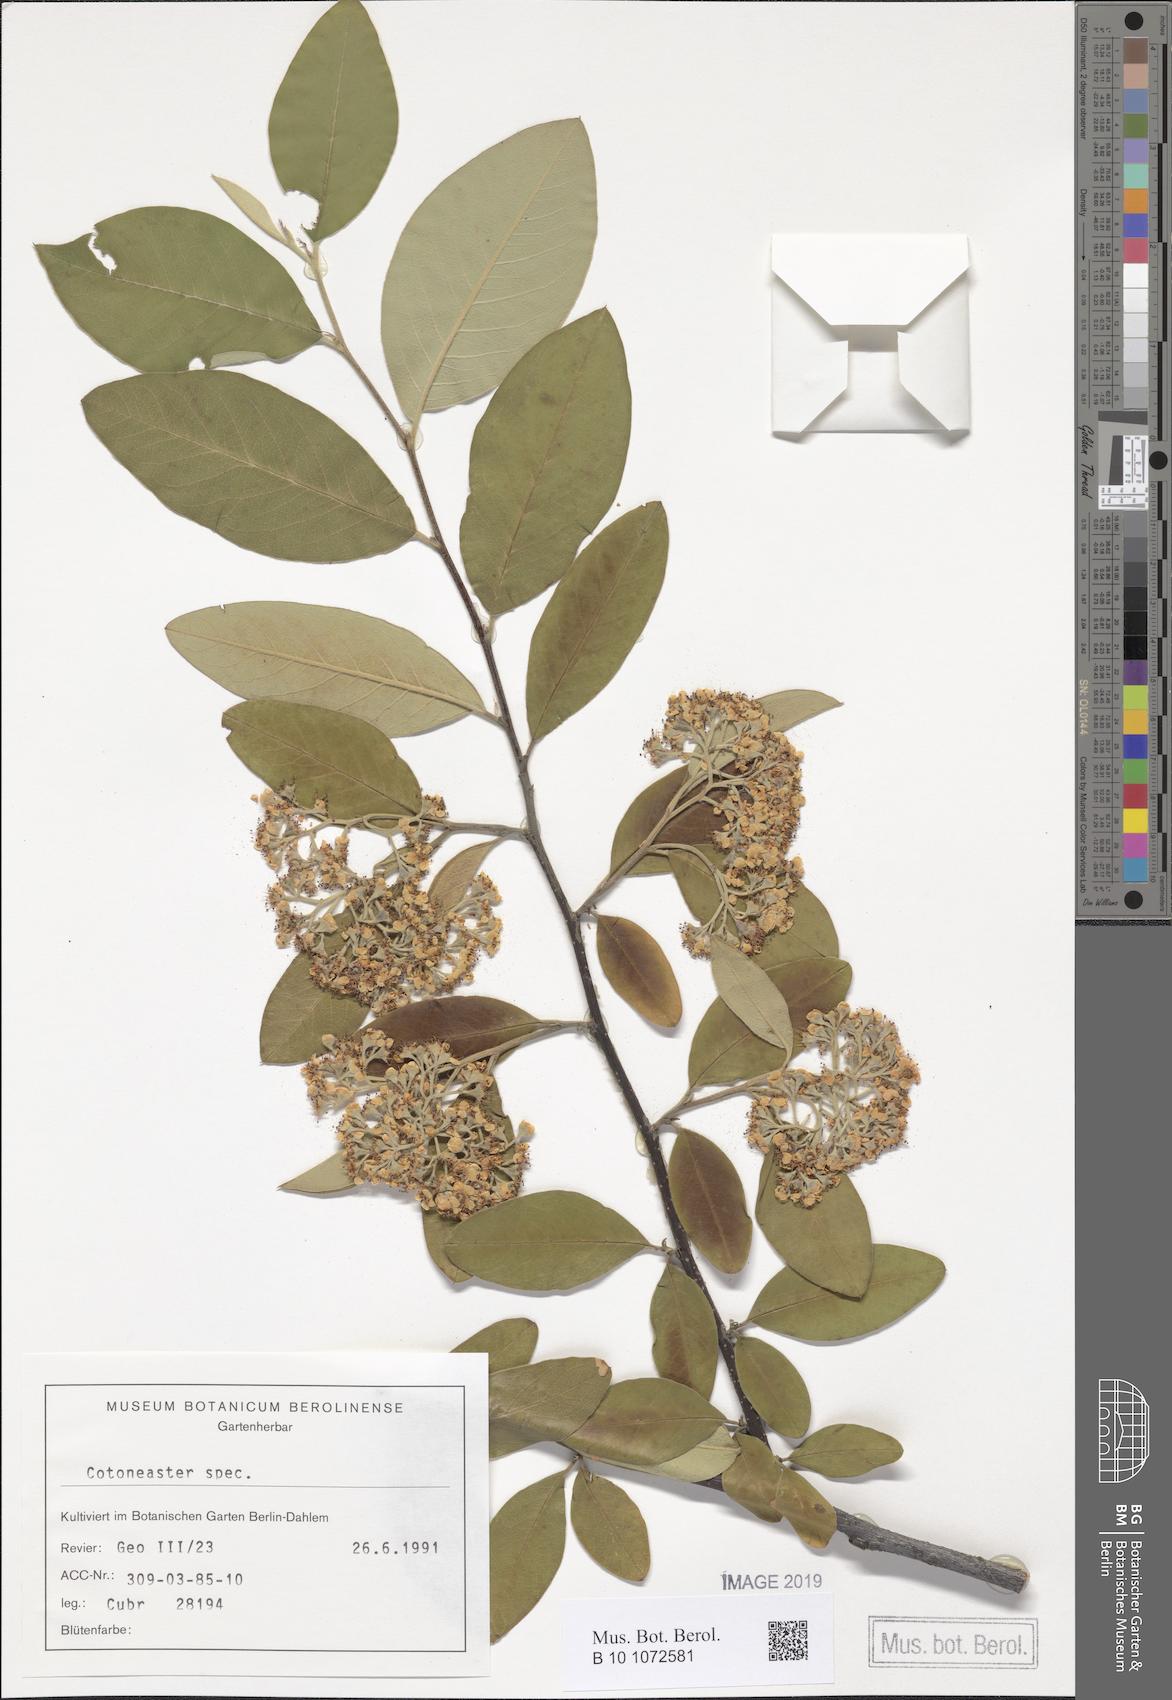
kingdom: Plantae
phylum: Tracheophyta
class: Magnoliopsida
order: Rosales
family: Rosaceae
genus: Cotoneaster
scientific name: Cotoneaster frigidus
